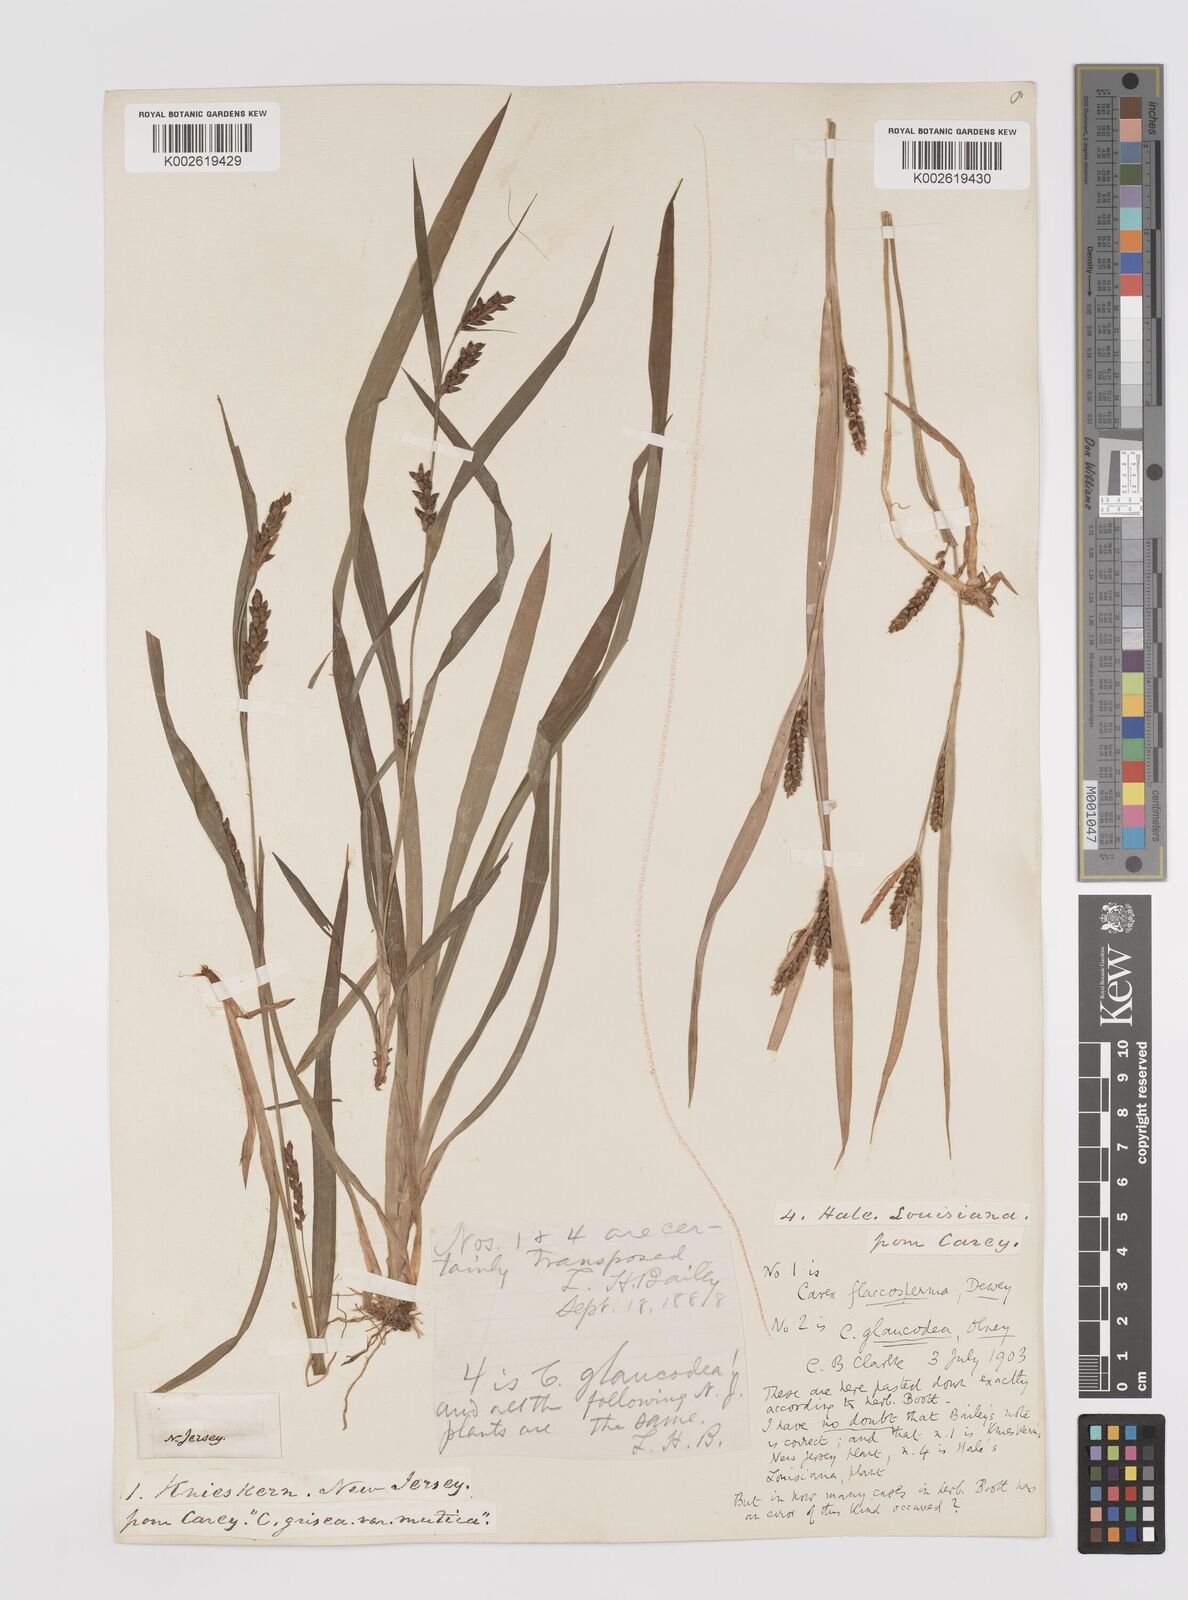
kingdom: Plantae
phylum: Tracheophyta
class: Liliopsida
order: Poales
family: Cyperaceae
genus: Carex
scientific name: Carex glaucodea
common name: Blue sedge
